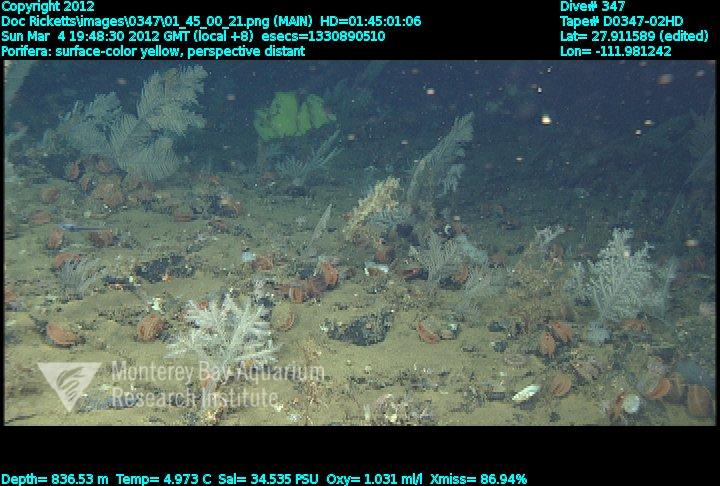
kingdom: Animalia
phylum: Porifera
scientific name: Porifera
